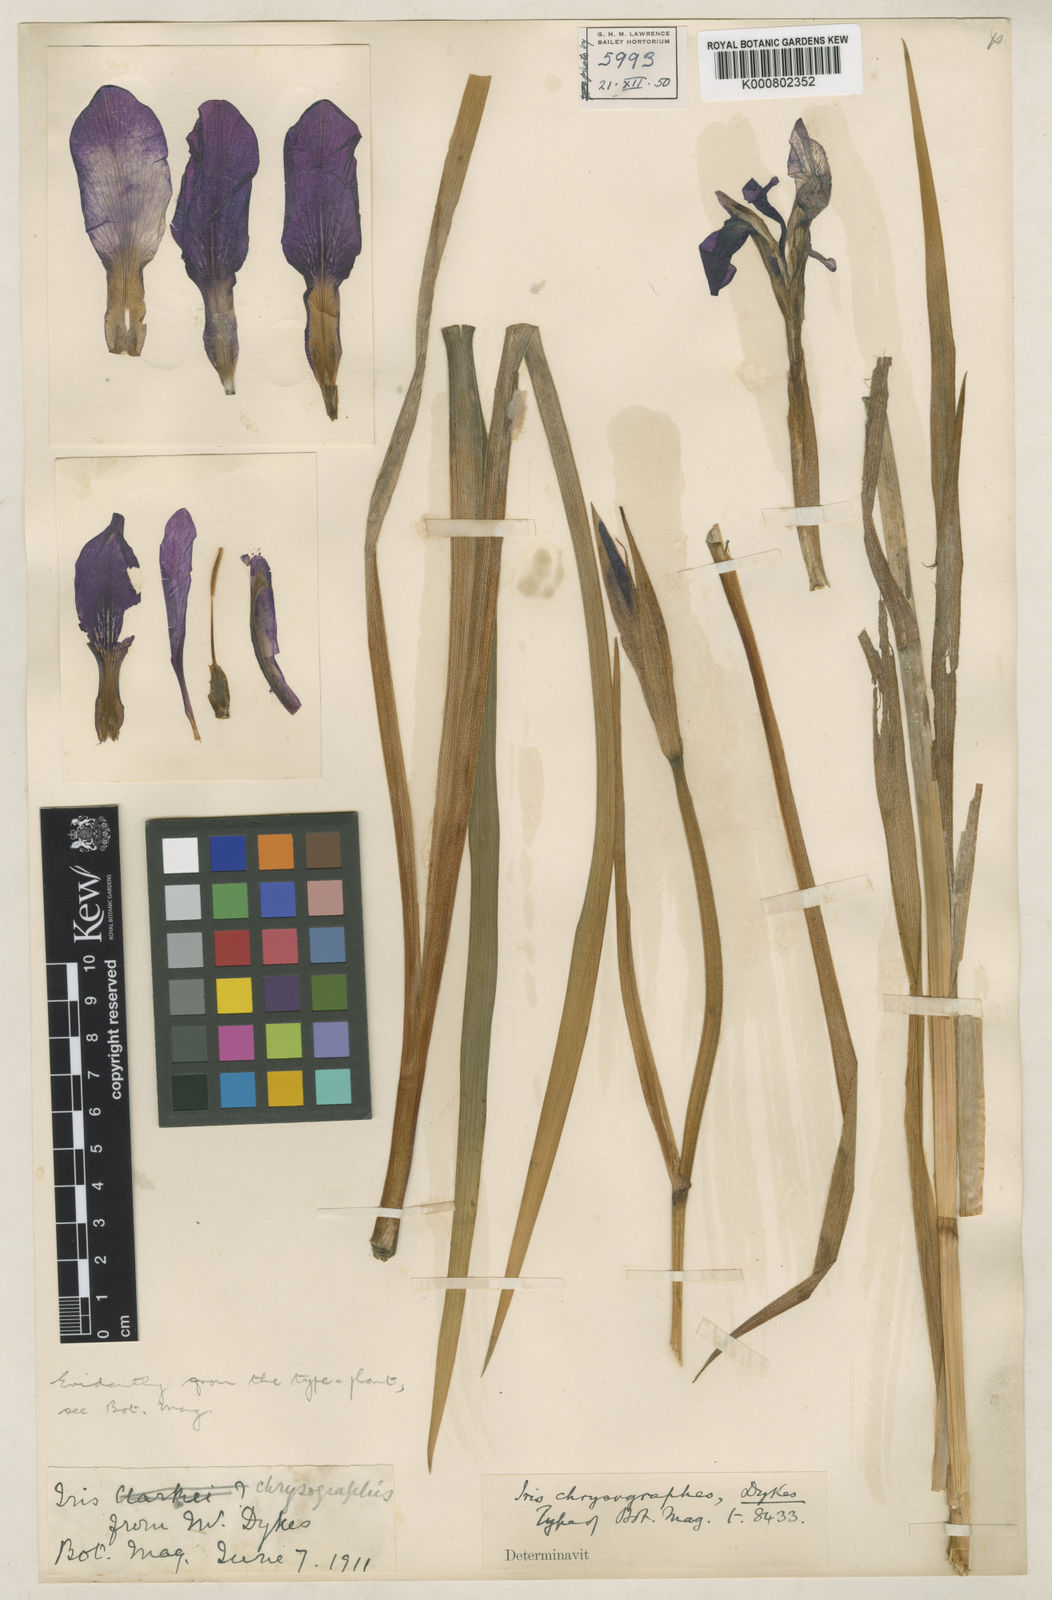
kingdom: Plantae
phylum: Tracheophyta
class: Liliopsida
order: Asparagales
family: Iridaceae
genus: Iris
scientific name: Iris chrysographes
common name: Gold-vein iris
